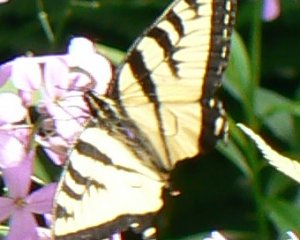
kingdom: Animalia
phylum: Arthropoda
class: Insecta
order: Lepidoptera
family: Papilionidae
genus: Pterourus
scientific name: Pterourus canadensis
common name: Canadian Tiger Swallowtail
